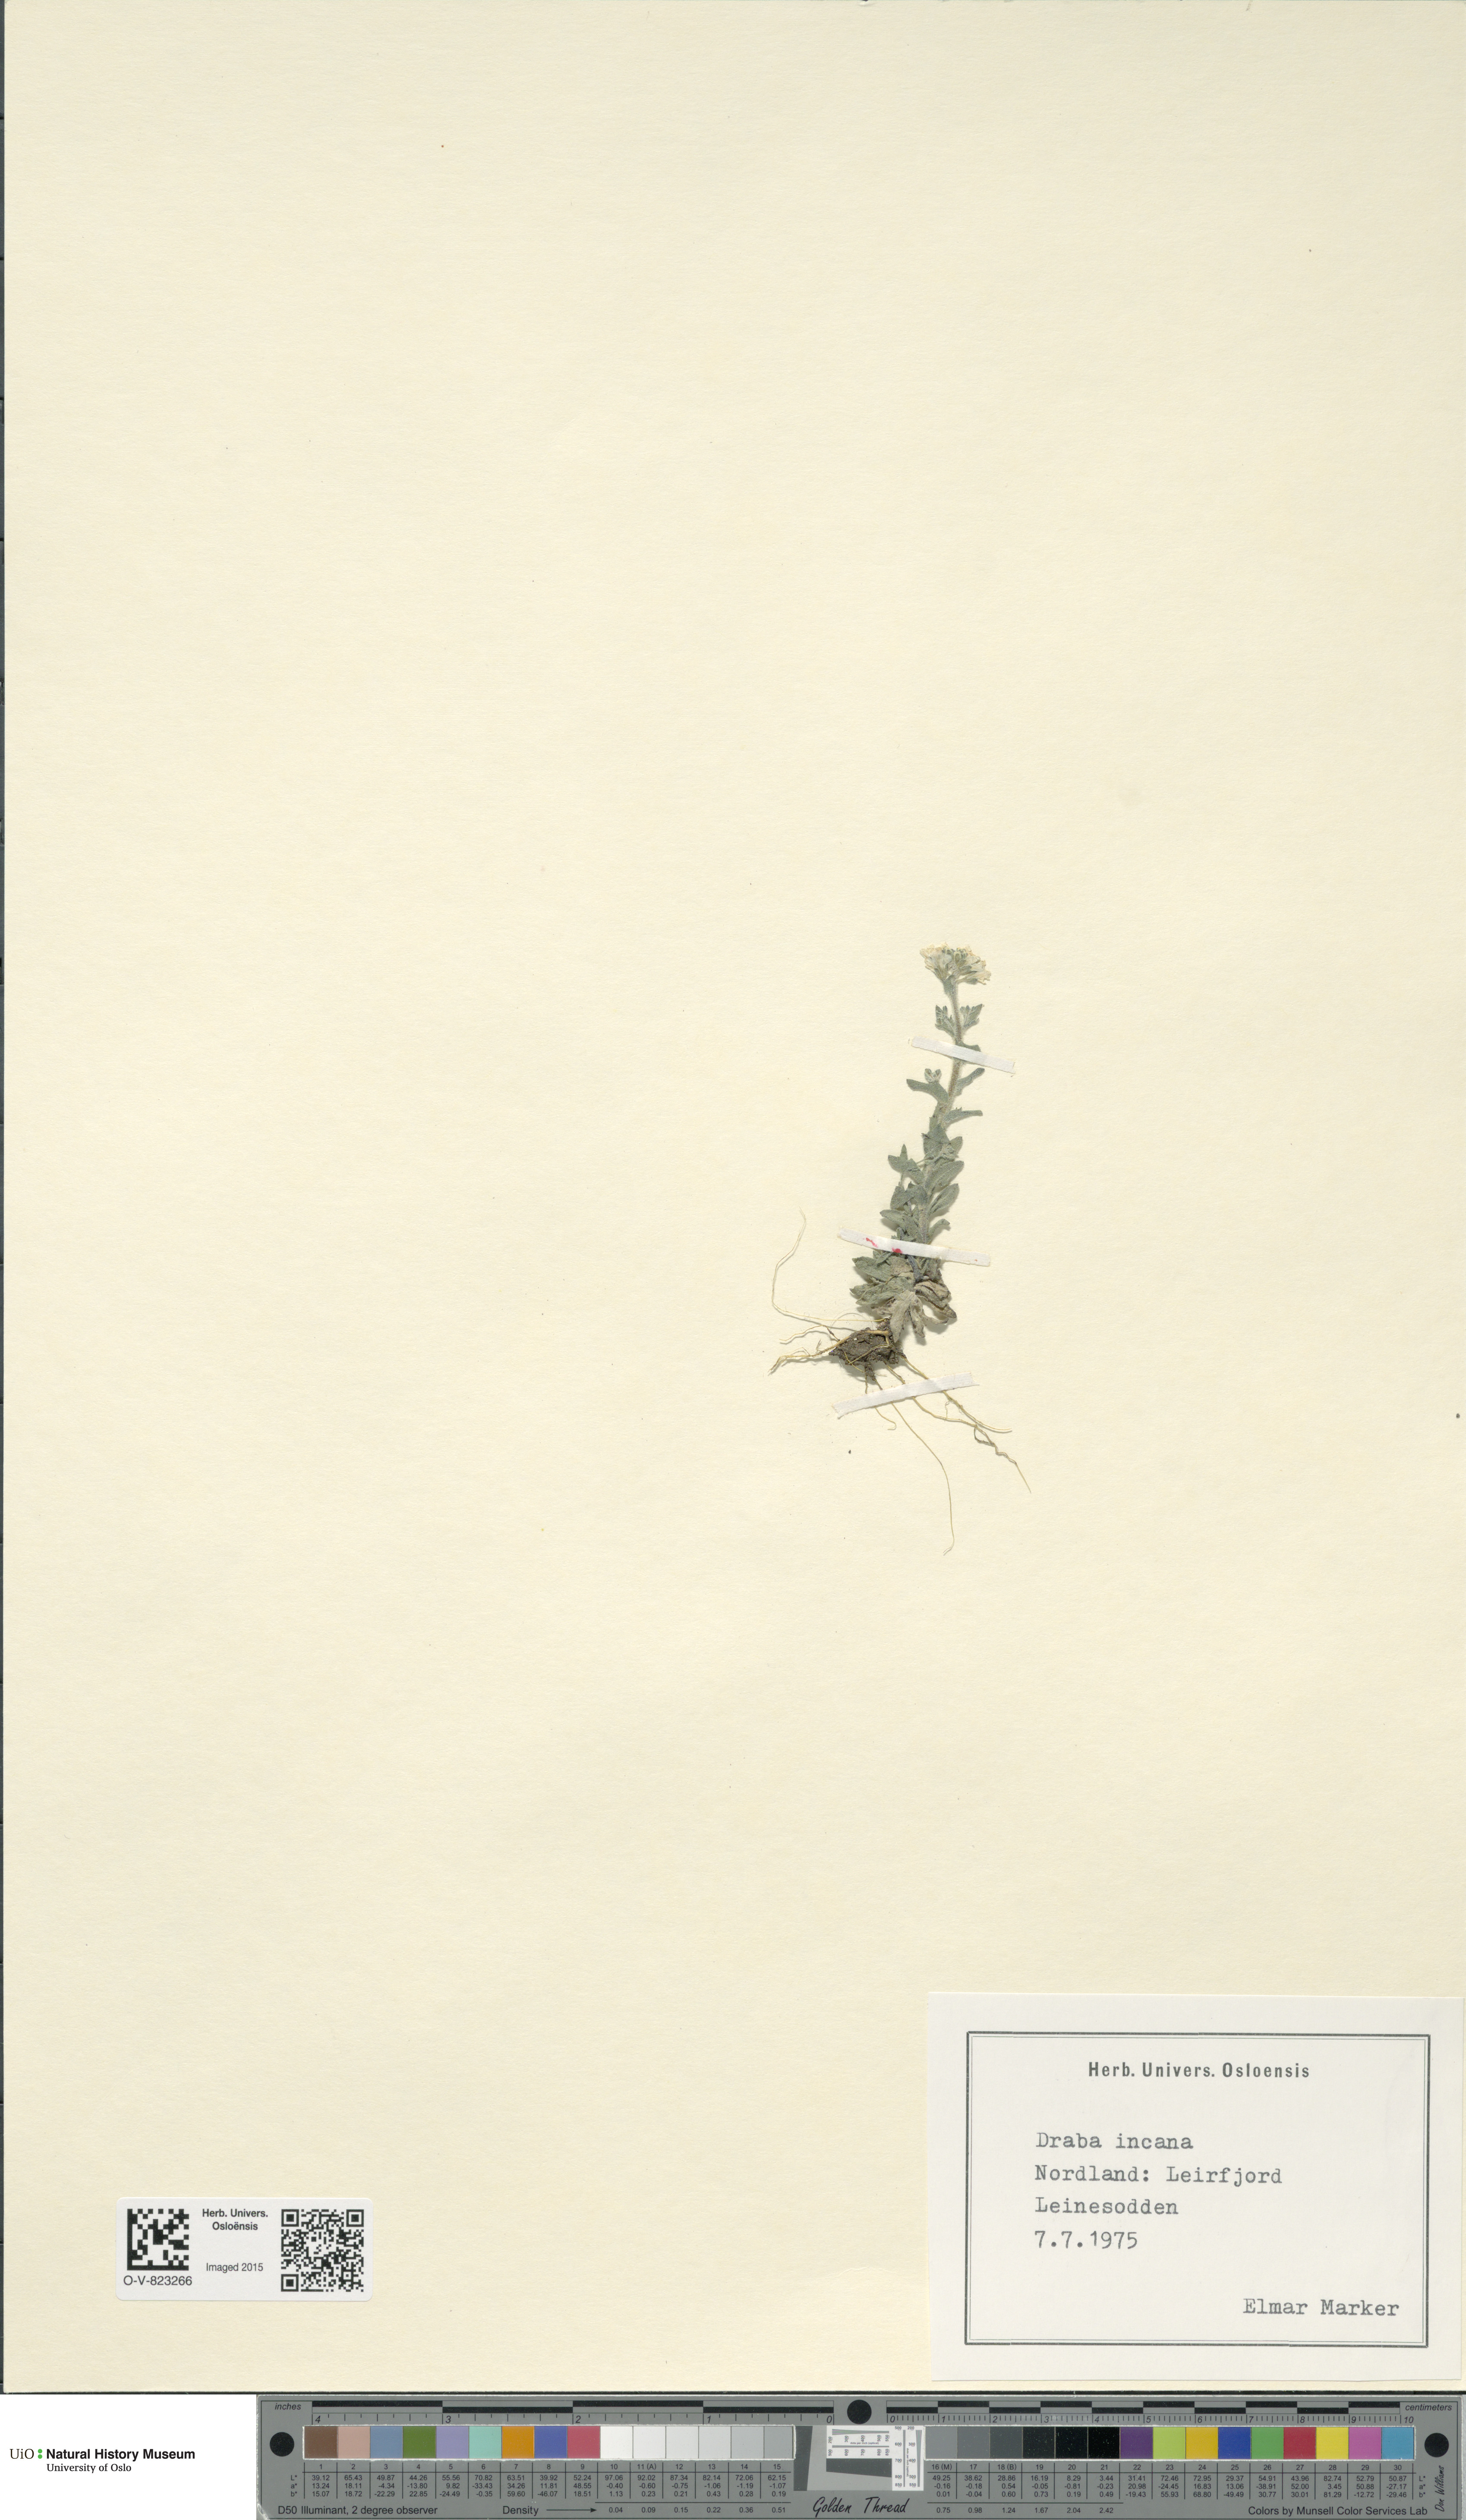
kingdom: Plantae
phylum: Tracheophyta
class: Magnoliopsida
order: Brassicales
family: Brassicaceae
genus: Draba
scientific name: Draba incana
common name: Hoary whitlow-grass
